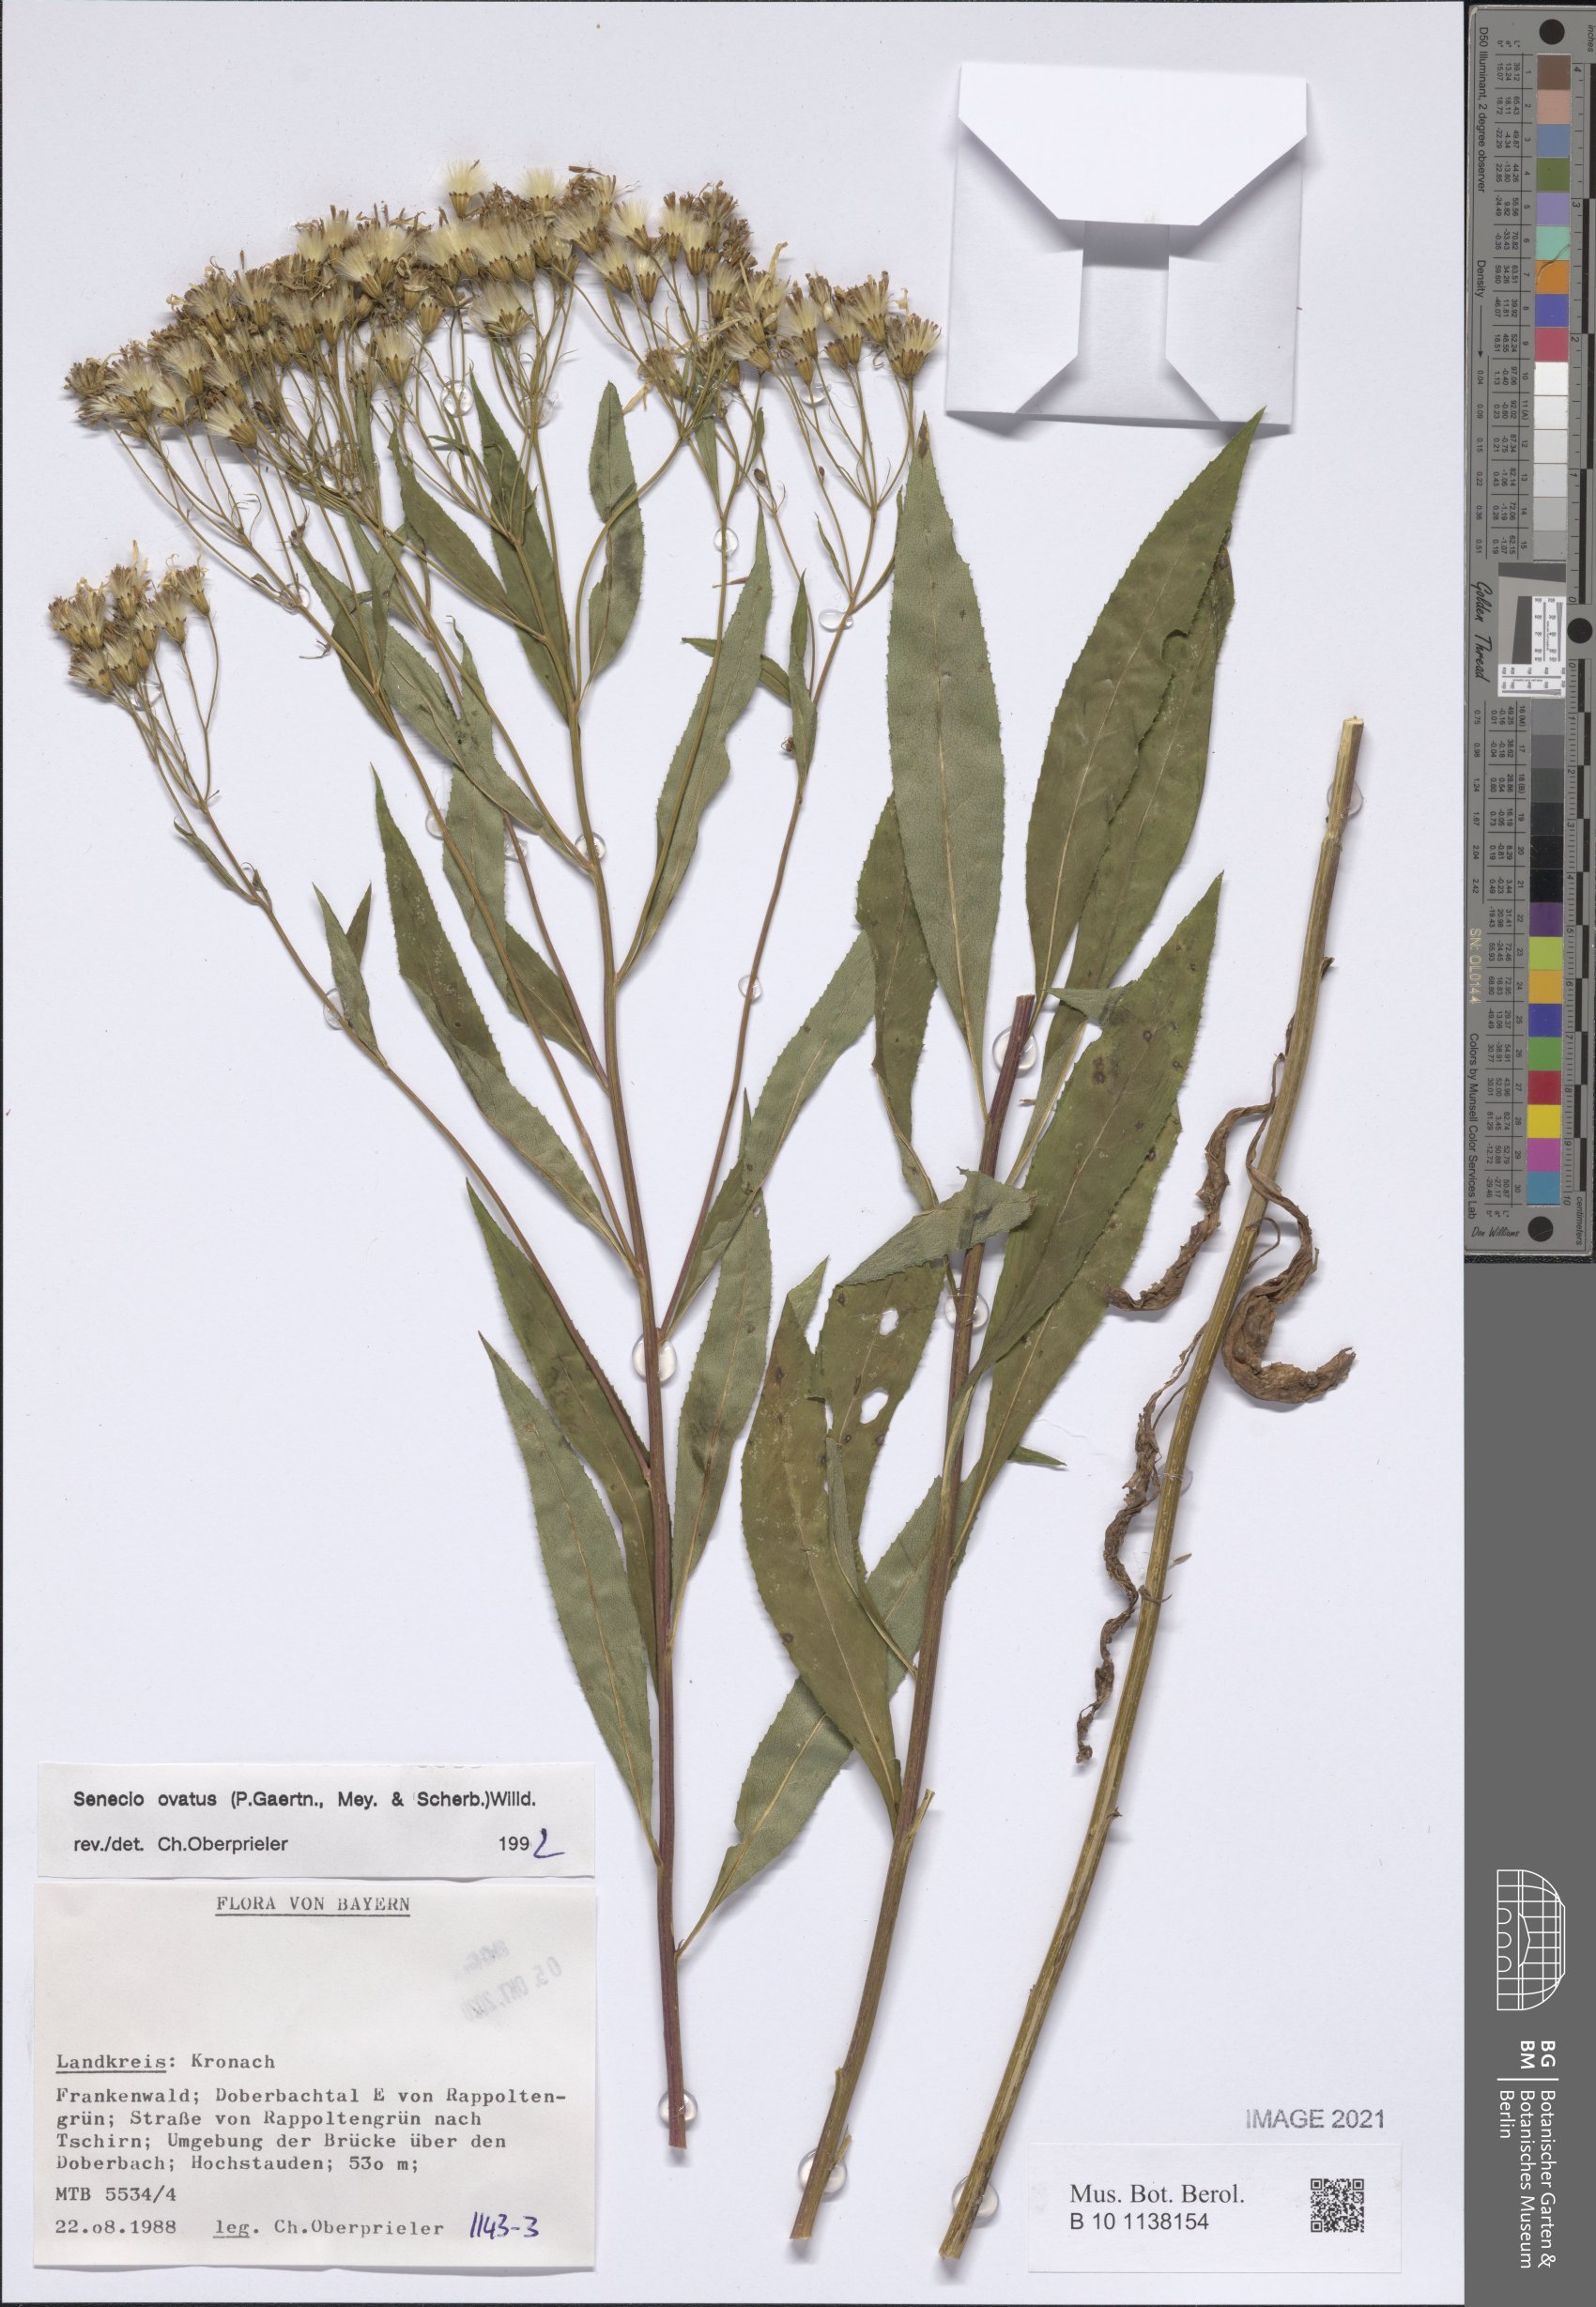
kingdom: Plantae
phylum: Tracheophyta
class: Magnoliopsida
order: Asterales
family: Asteraceae
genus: Senecio
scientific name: Senecio ovatus
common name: Wood ragwort
